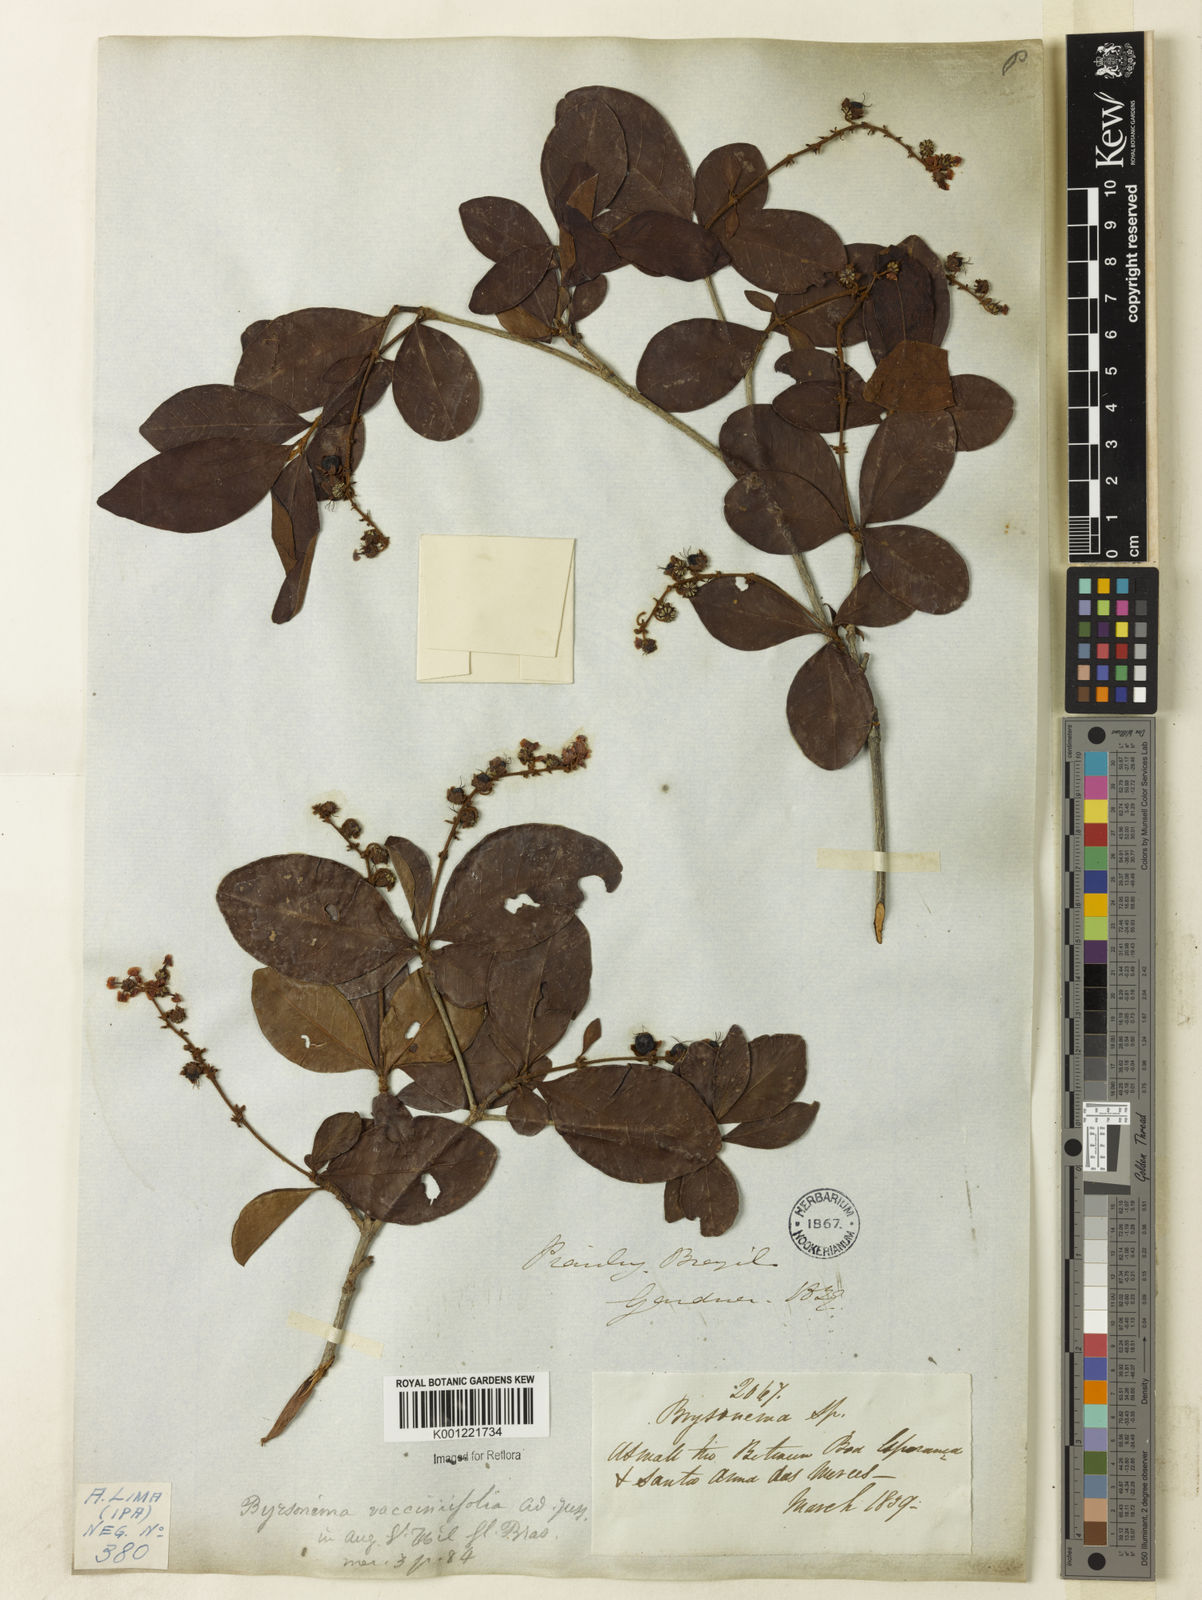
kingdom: Plantae
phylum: Tracheophyta
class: Magnoliopsida
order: Malpighiales
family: Malpighiaceae
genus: Byrsonima
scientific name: Byrsonima vacciniifolia
